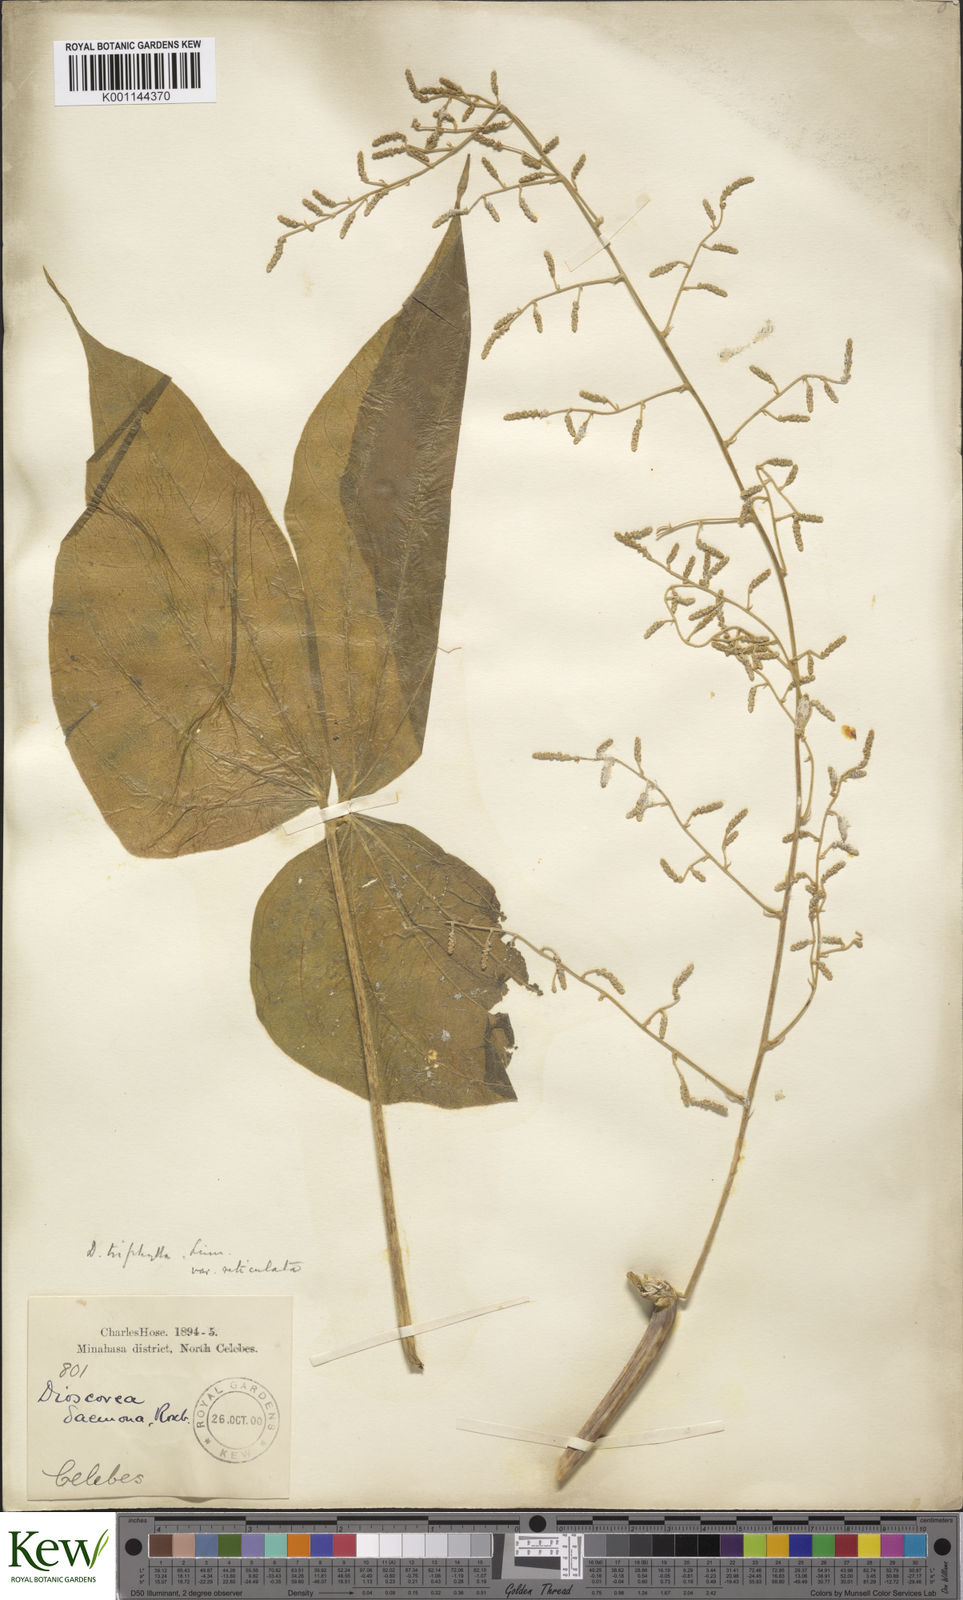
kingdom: Plantae
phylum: Tracheophyta
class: Liliopsida
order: Dioscoreales
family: Dioscoreaceae
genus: Dioscorea
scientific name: Dioscorea hispida
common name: Asiatic bitter yam
